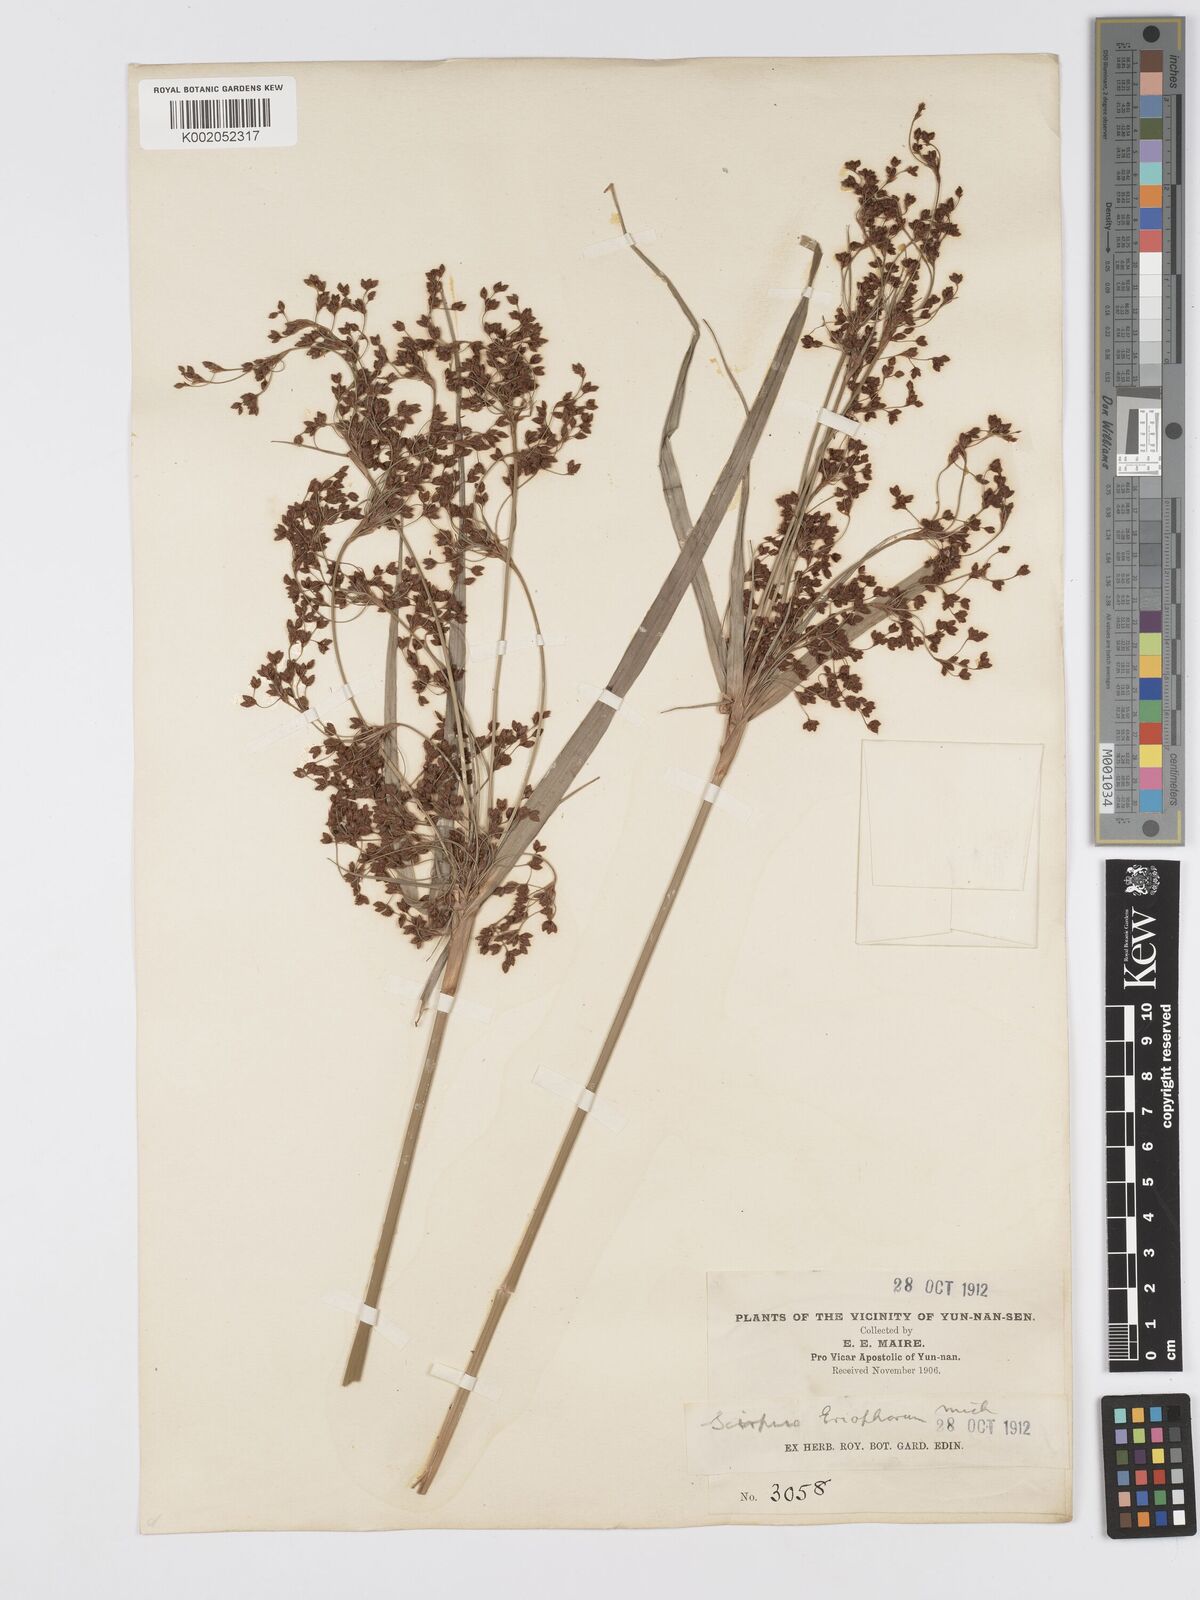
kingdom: Plantae
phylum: Tracheophyta
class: Liliopsida
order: Poales
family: Cyperaceae
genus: Scirpus
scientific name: Scirpus cyperinus
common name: Black-sheathed bulrush
